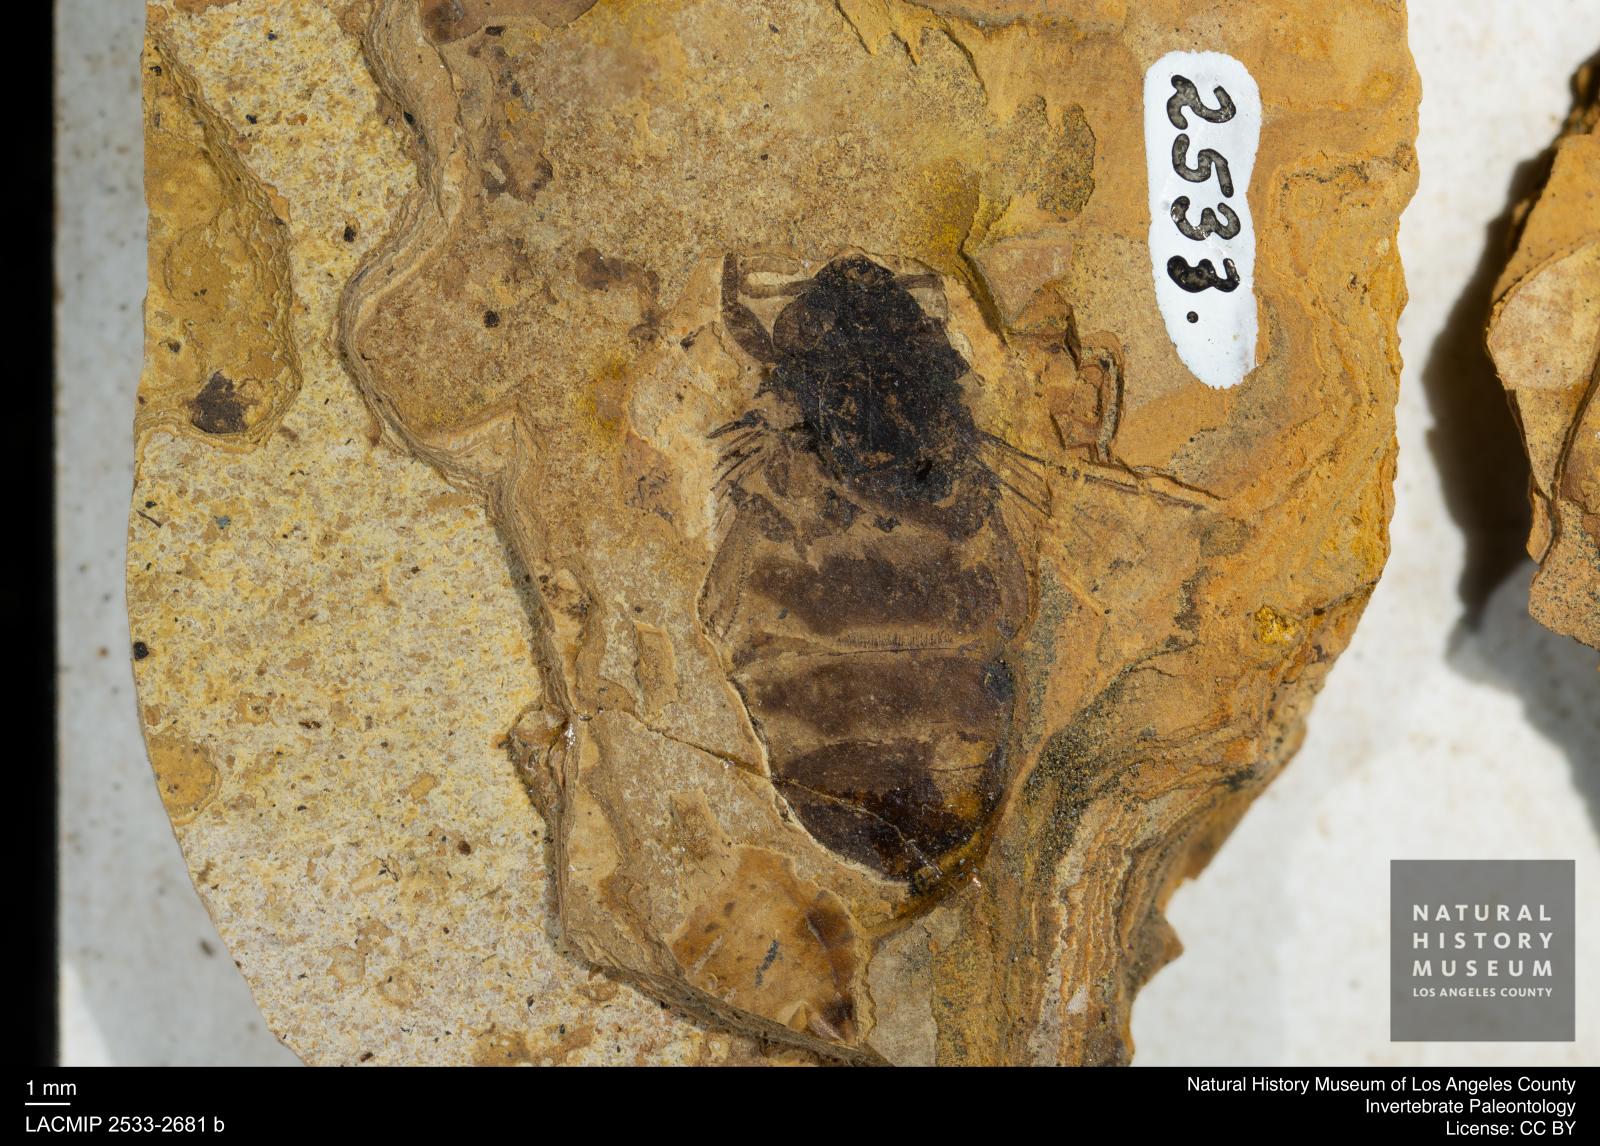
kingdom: Animalia
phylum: Arthropoda
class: Insecta
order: Hymenoptera
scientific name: Hymenoptera
